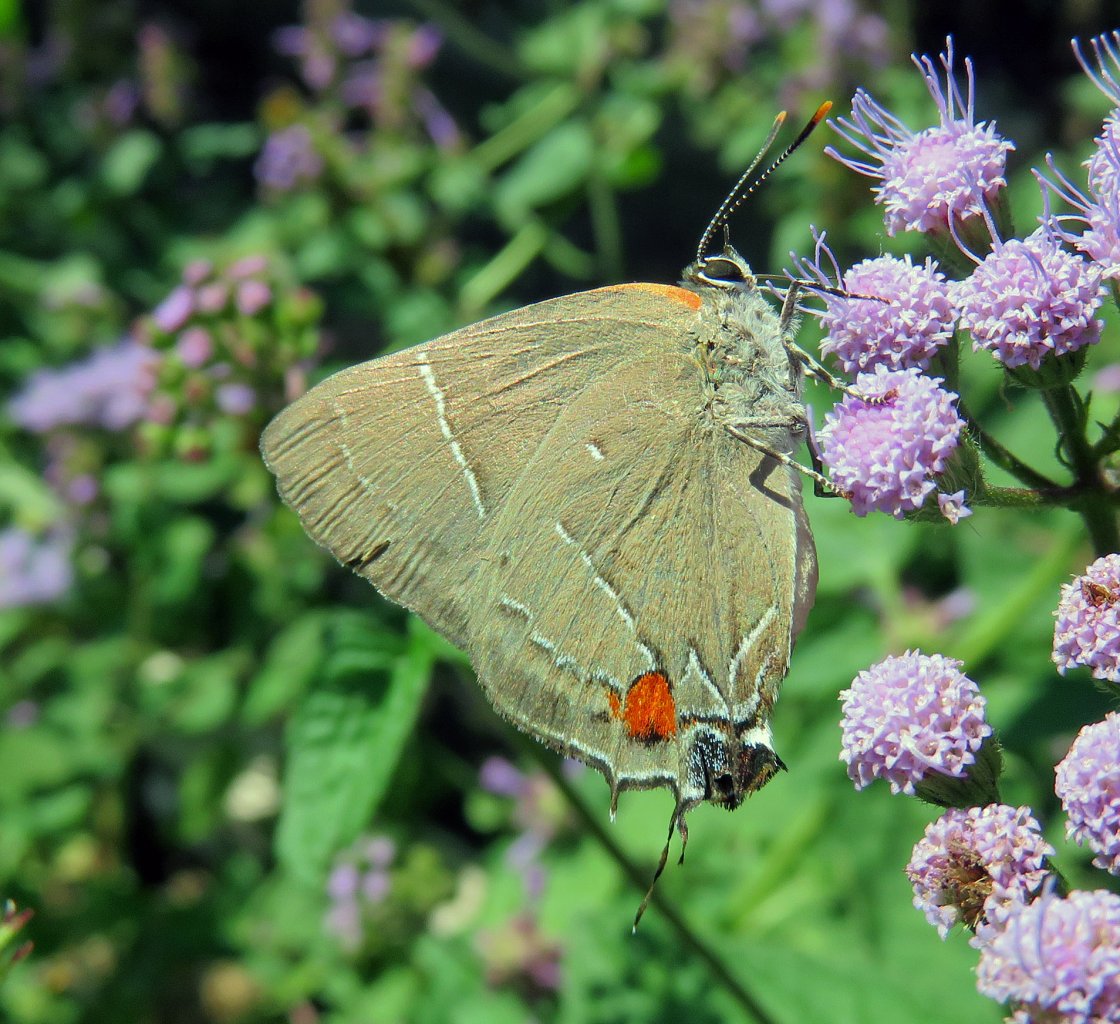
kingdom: Animalia
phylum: Arthropoda
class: Insecta
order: Lepidoptera
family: Lycaenidae
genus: Parrhasius
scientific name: Parrhasius m-album
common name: White-m Hairstreak
